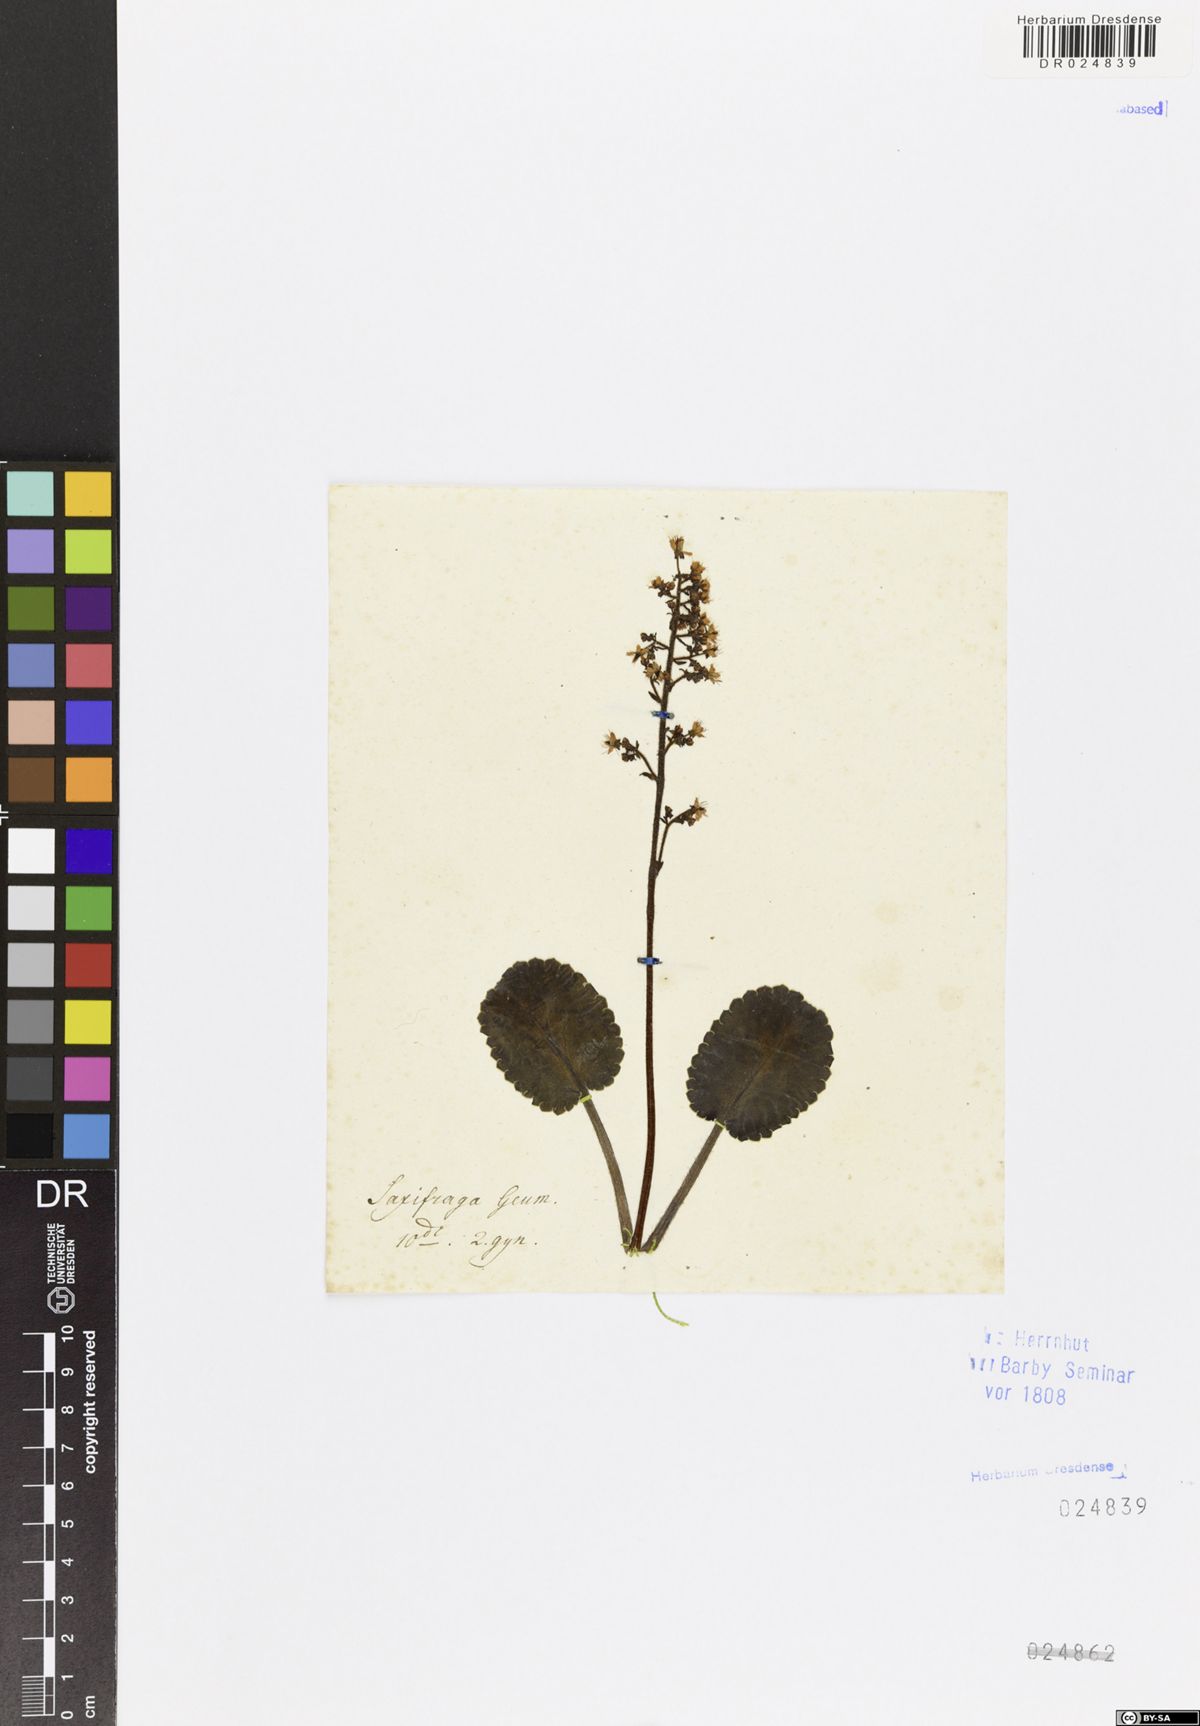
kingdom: Plantae
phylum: Tracheophyta
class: Magnoliopsida
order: Saxifragales
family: Saxifragaceae
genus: Saxifraga
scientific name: Saxifraga hirsuta
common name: Kidney saxifrage
